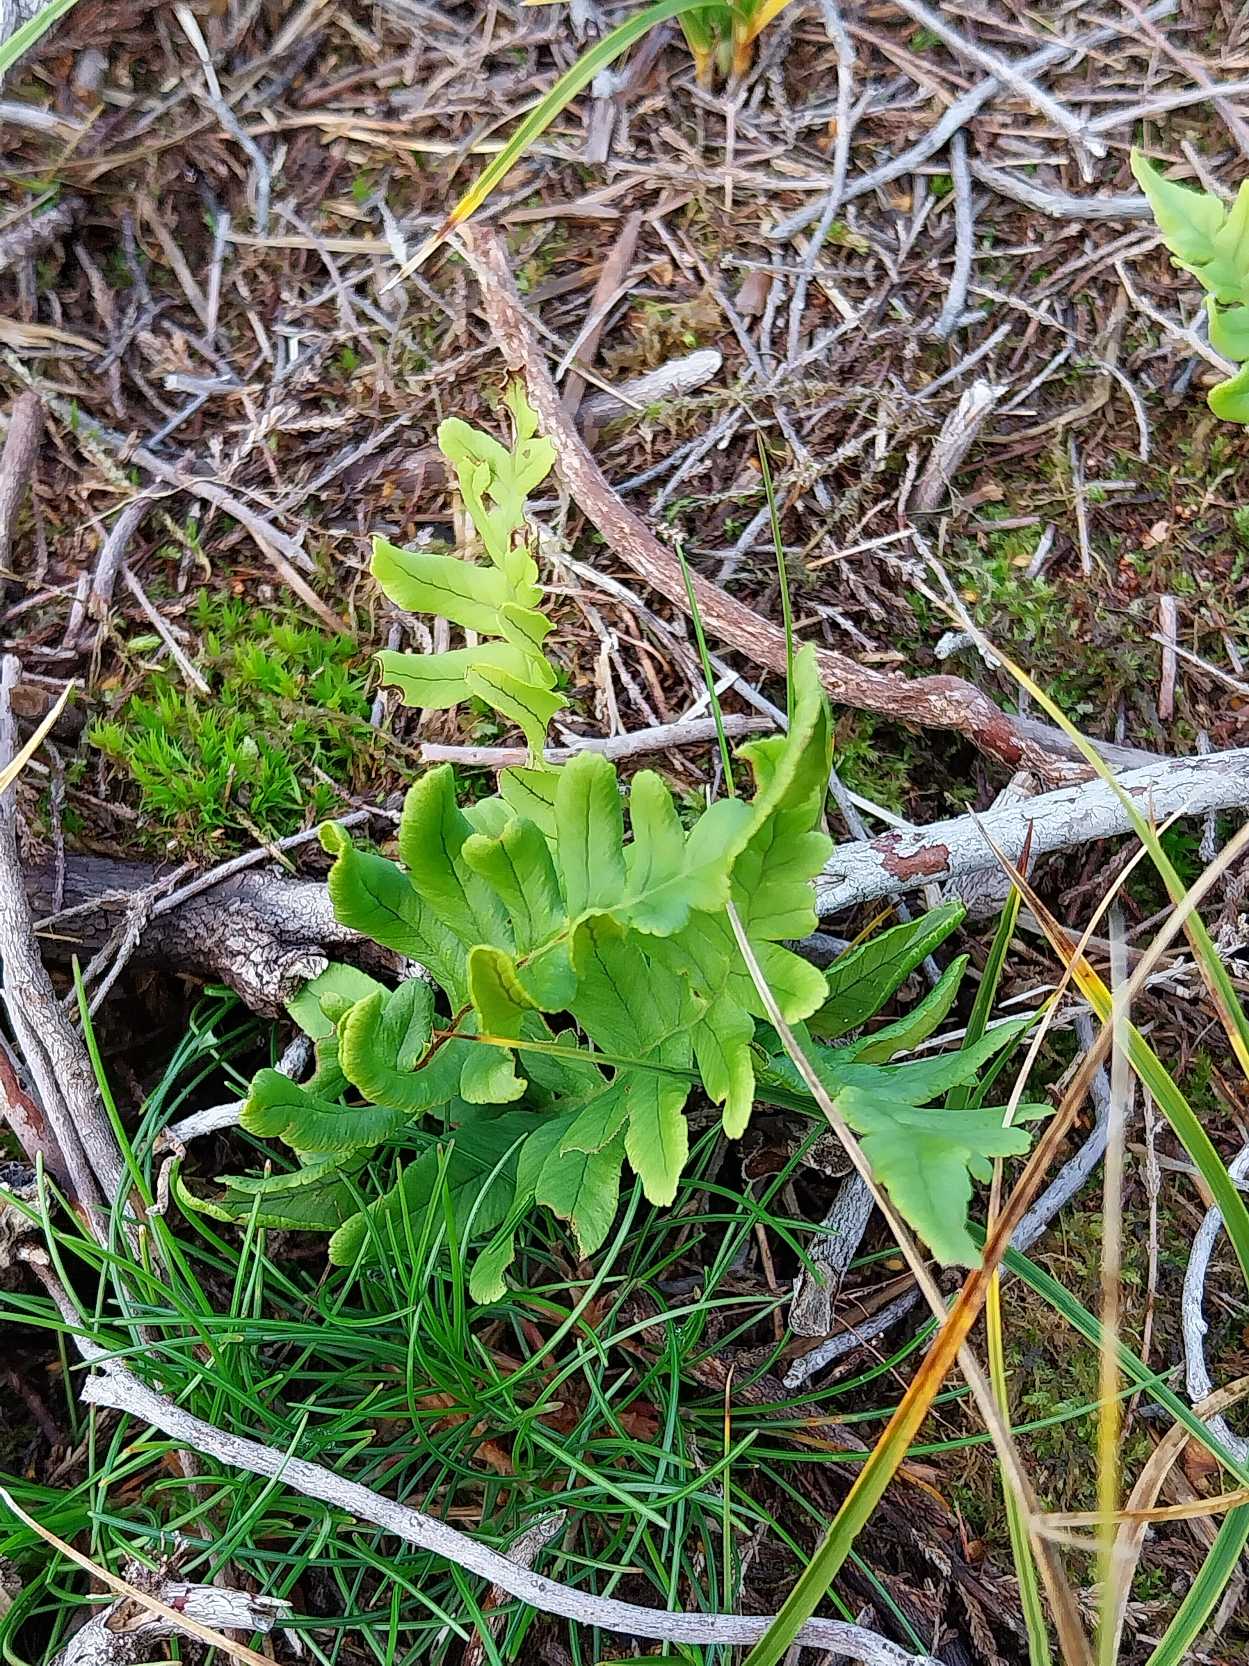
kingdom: Plantae
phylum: Tracheophyta
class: Polypodiopsida
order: Polypodiales
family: Polypodiaceae
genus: Polypodium
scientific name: Polypodium vulgare
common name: Almindelig engelsød
